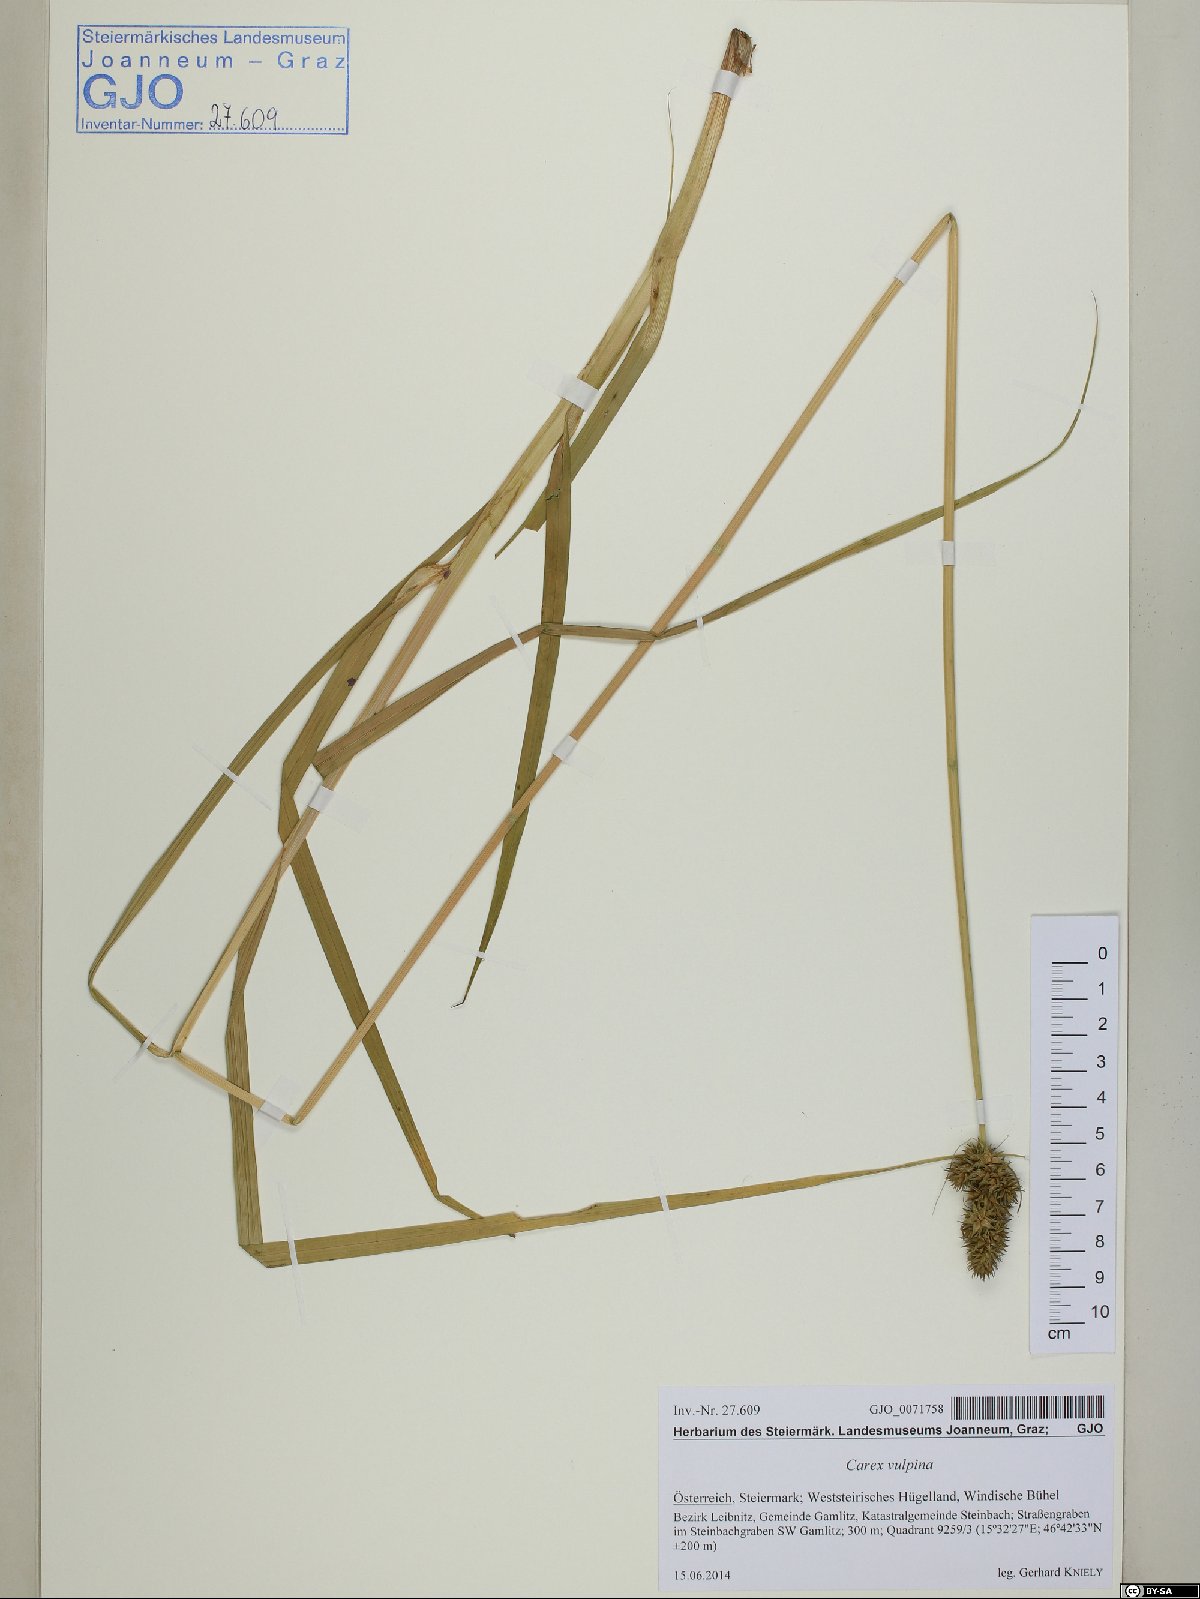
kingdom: Plantae
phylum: Tracheophyta
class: Liliopsida
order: Poales
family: Cyperaceae
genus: Carex
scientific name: Carex vulpina
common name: True fox-sedge
